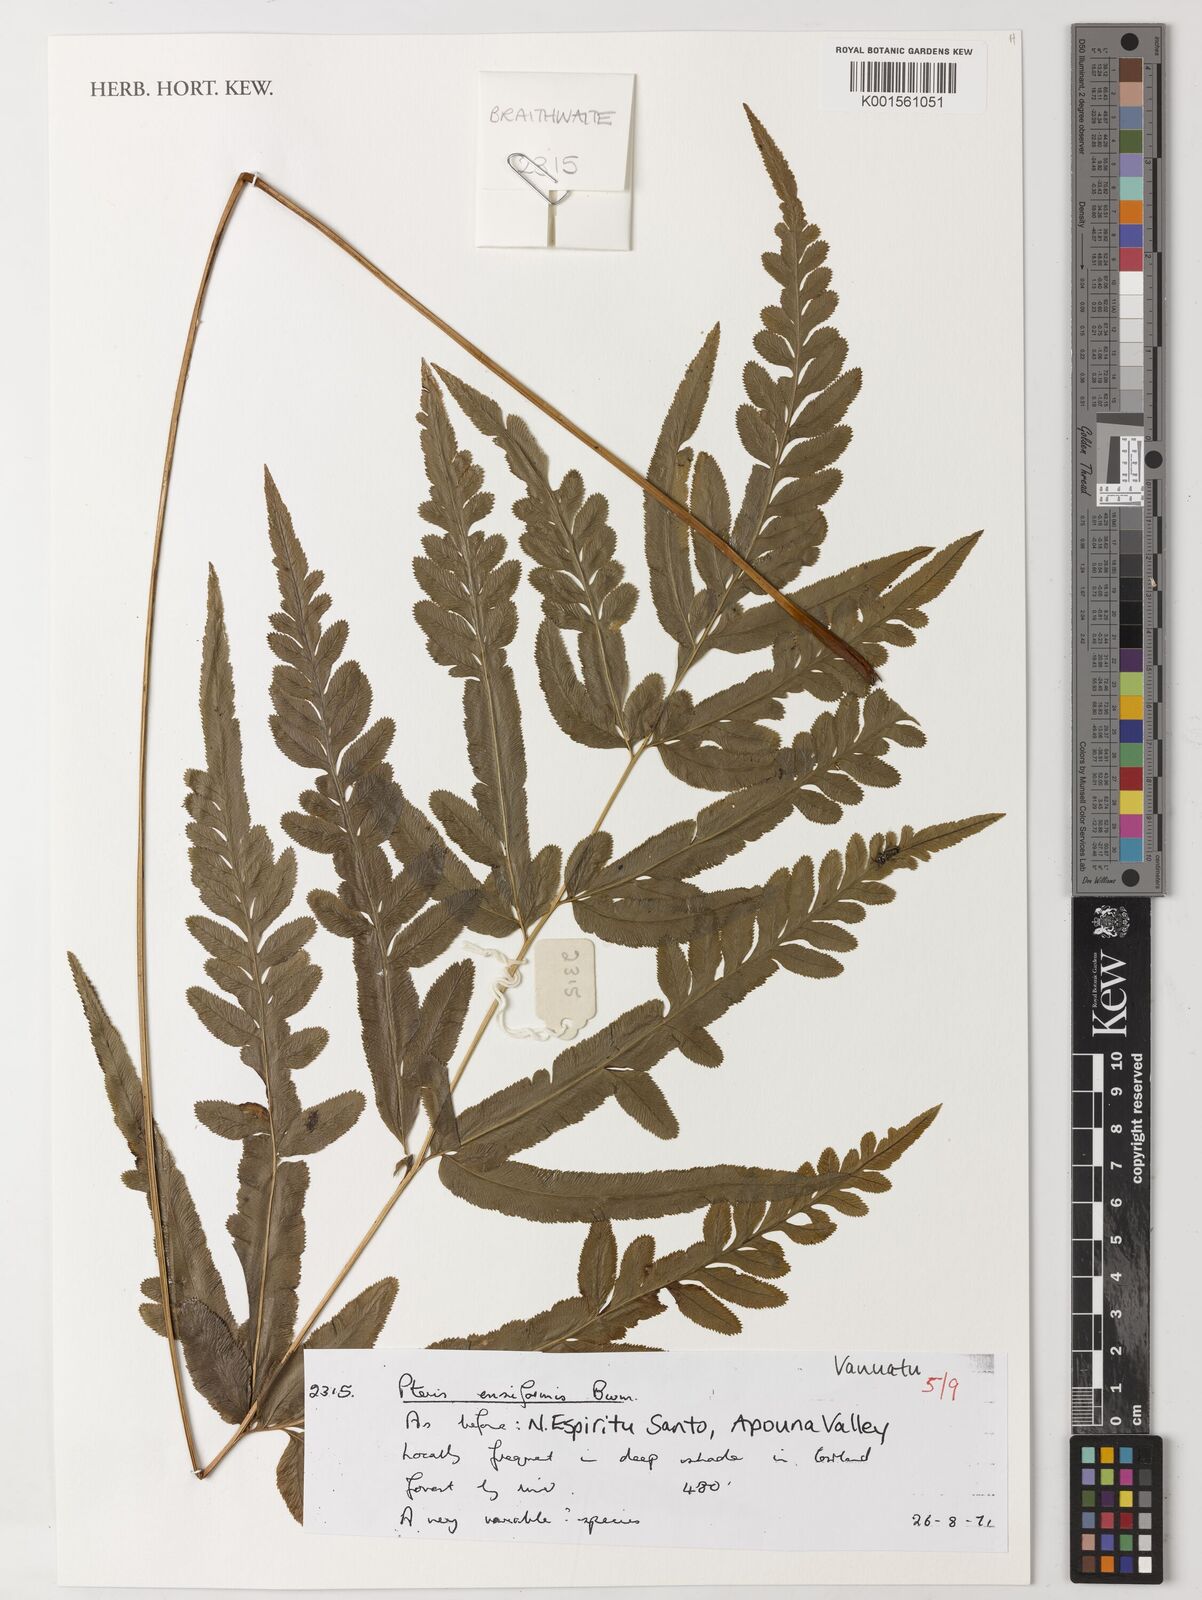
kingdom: Plantae
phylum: Tracheophyta
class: Polypodiopsida
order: Polypodiales
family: Pteridaceae
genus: Pteris
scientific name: Pteris ensiformis
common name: Sword brake
